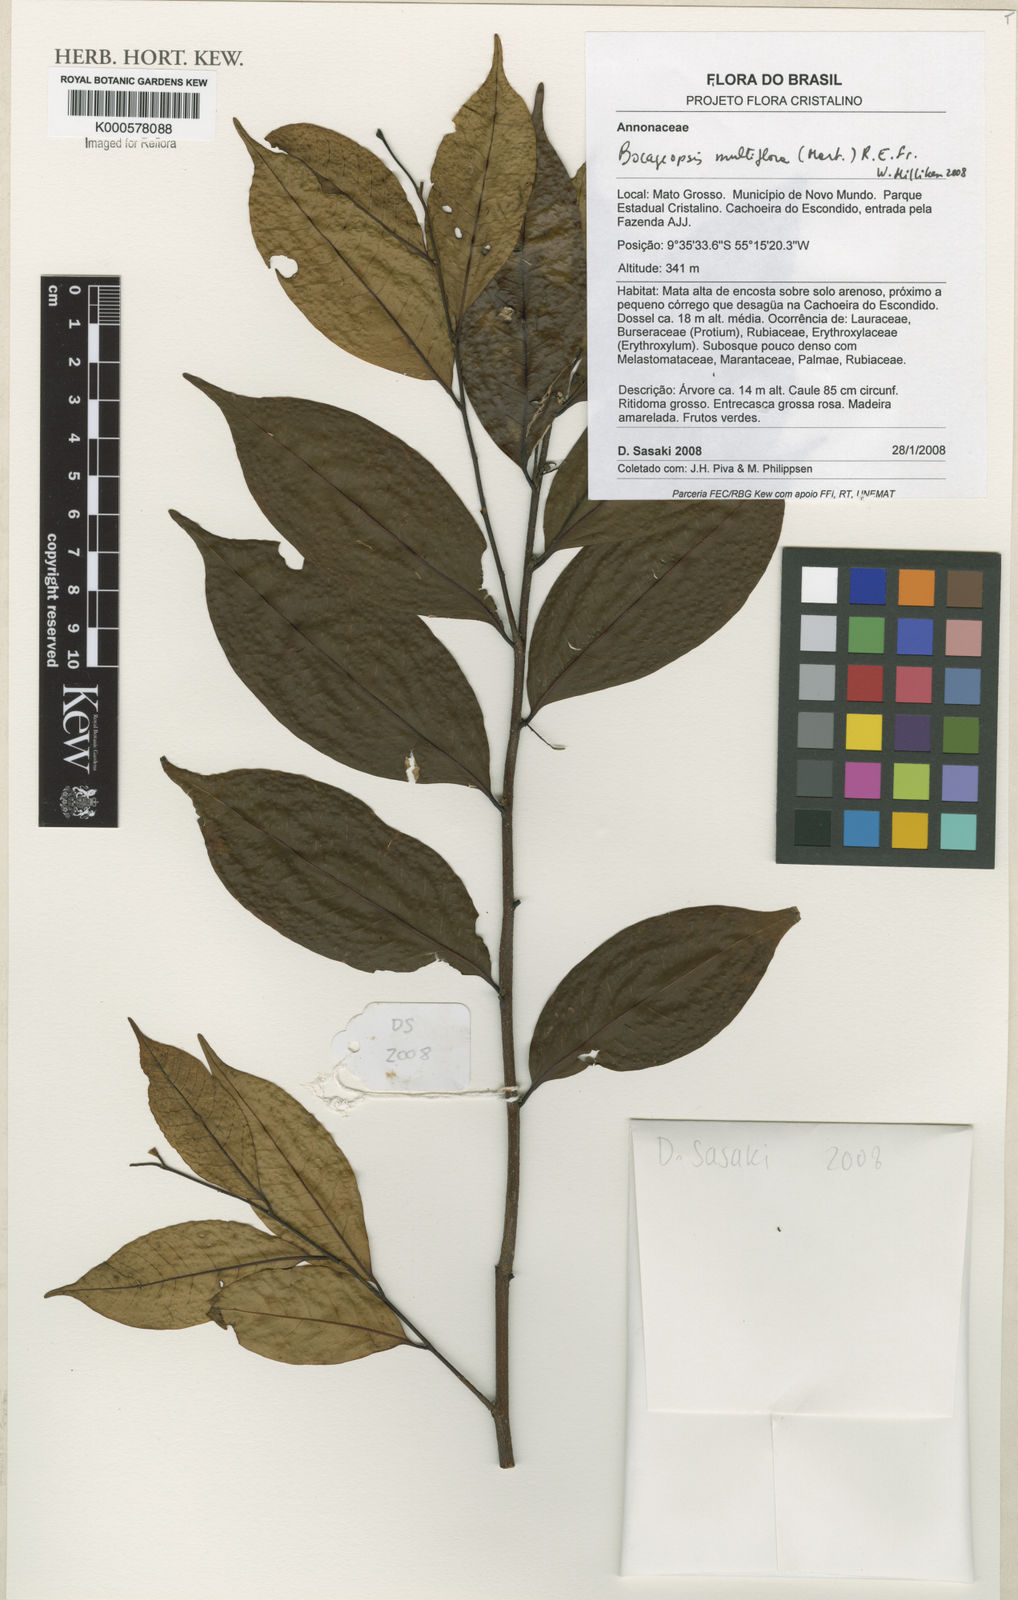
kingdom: Plantae
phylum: Tracheophyta
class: Magnoliopsida
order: Magnoliales
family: Annonaceae
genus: Bocageopsis
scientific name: Bocageopsis multiflora
